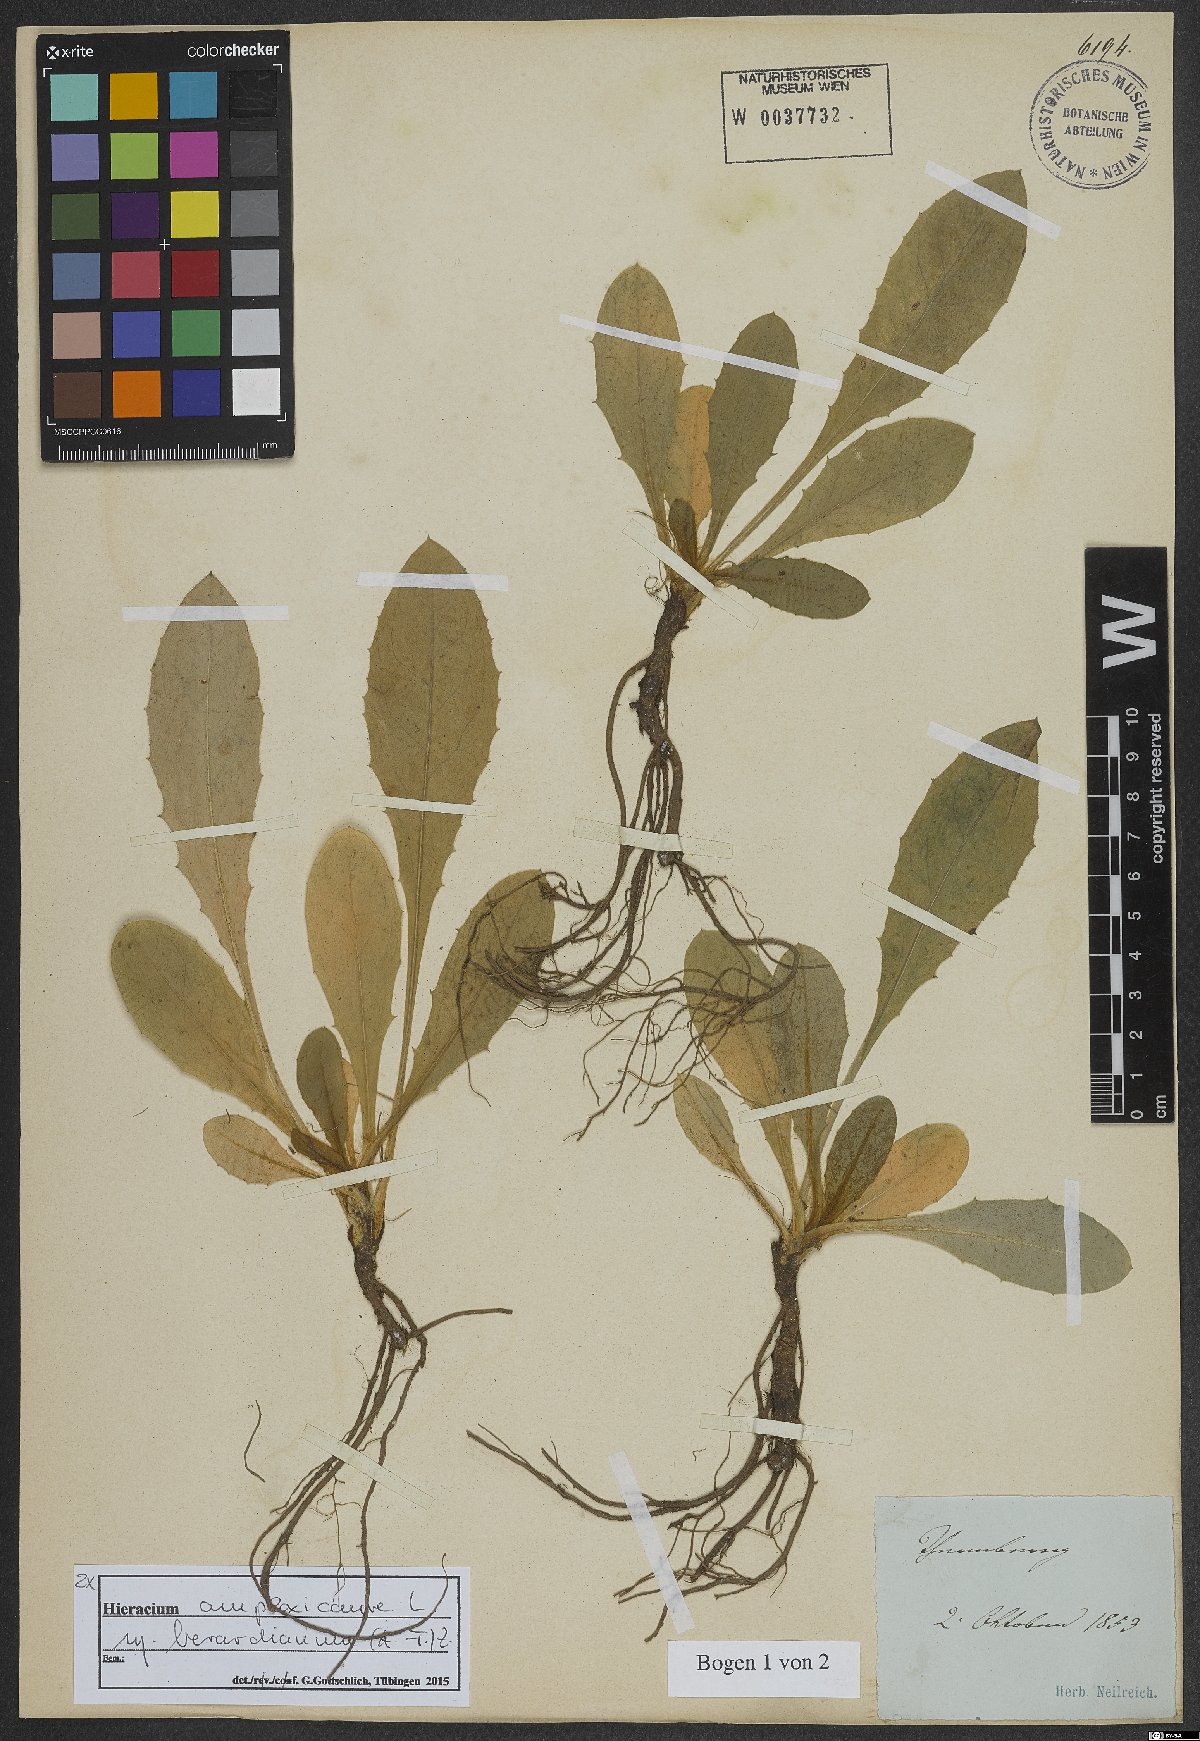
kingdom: Plantae
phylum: Tracheophyta
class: Magnoliopsida
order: Asterales
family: Asteraceae
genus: Hieracium
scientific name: Hieracium amplexicaule
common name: Sticky hawkweed
